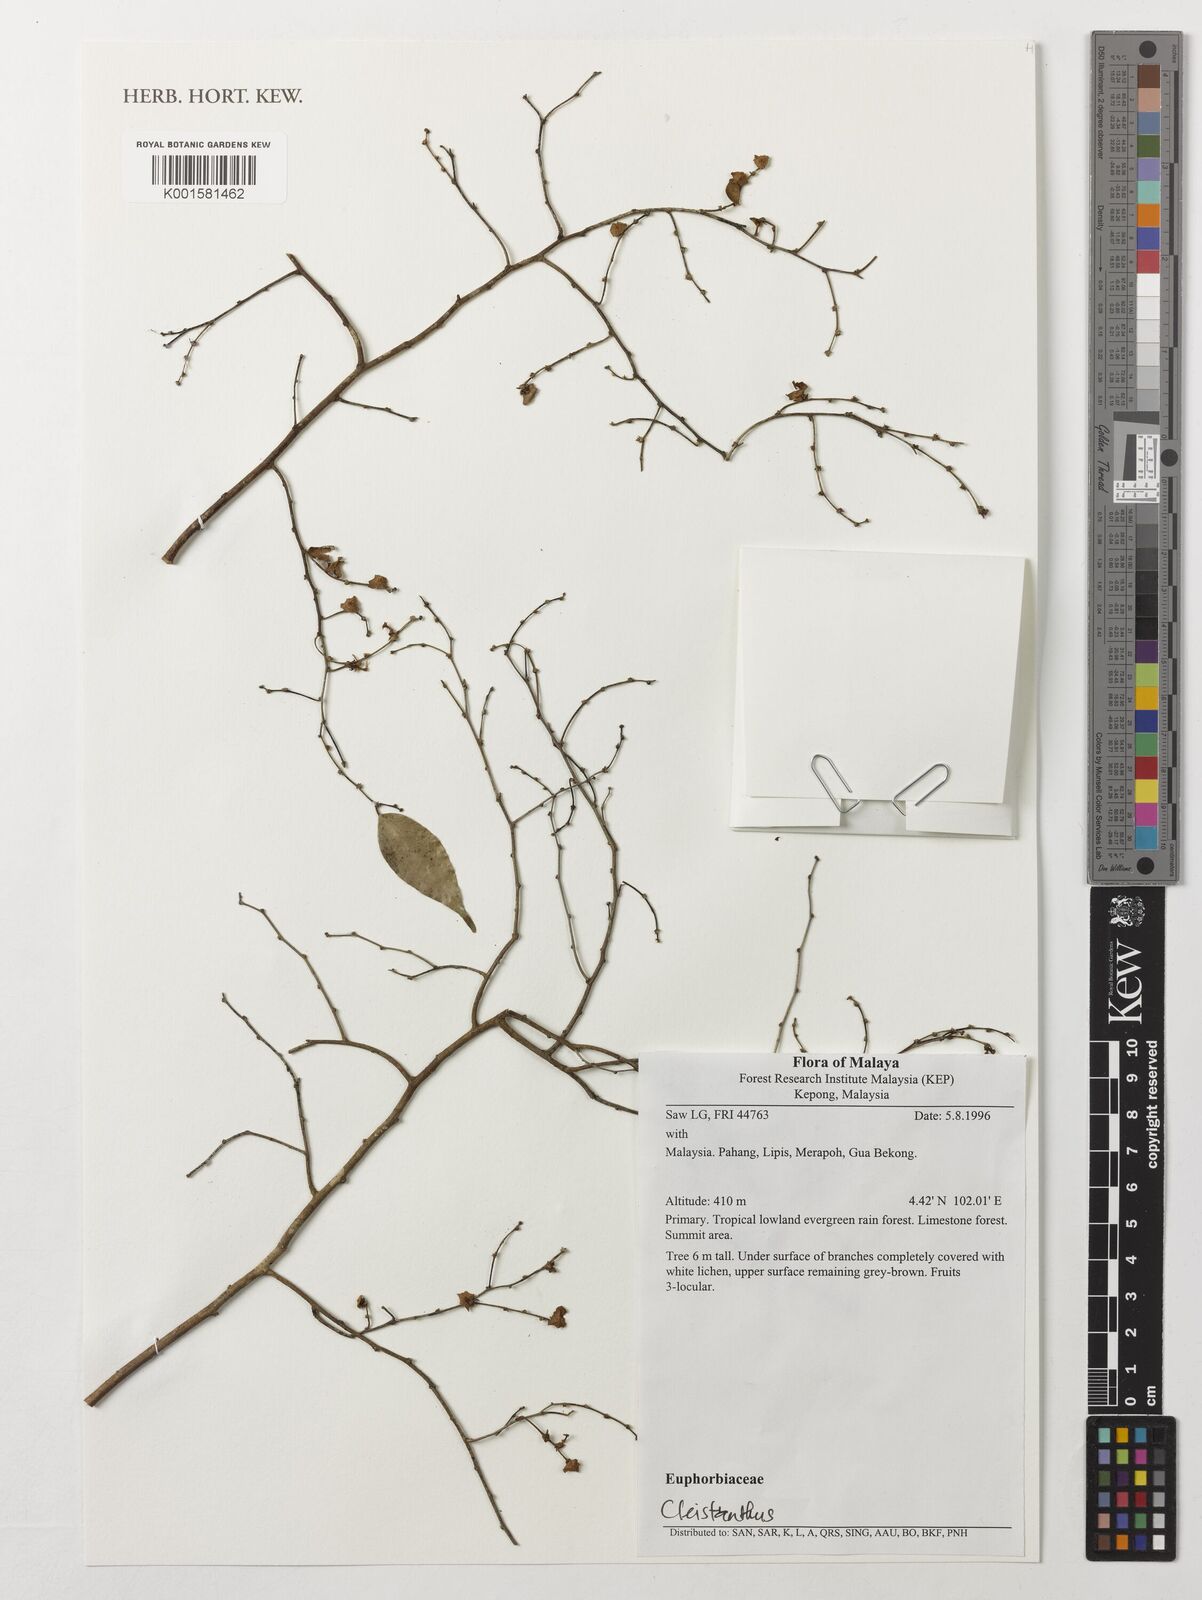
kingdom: Plantae
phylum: Tracheophyta
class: Magnoliopsida
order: Malpighiales
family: Phyllanthaceae
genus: Cleistanthus
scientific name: Cleistanthus
